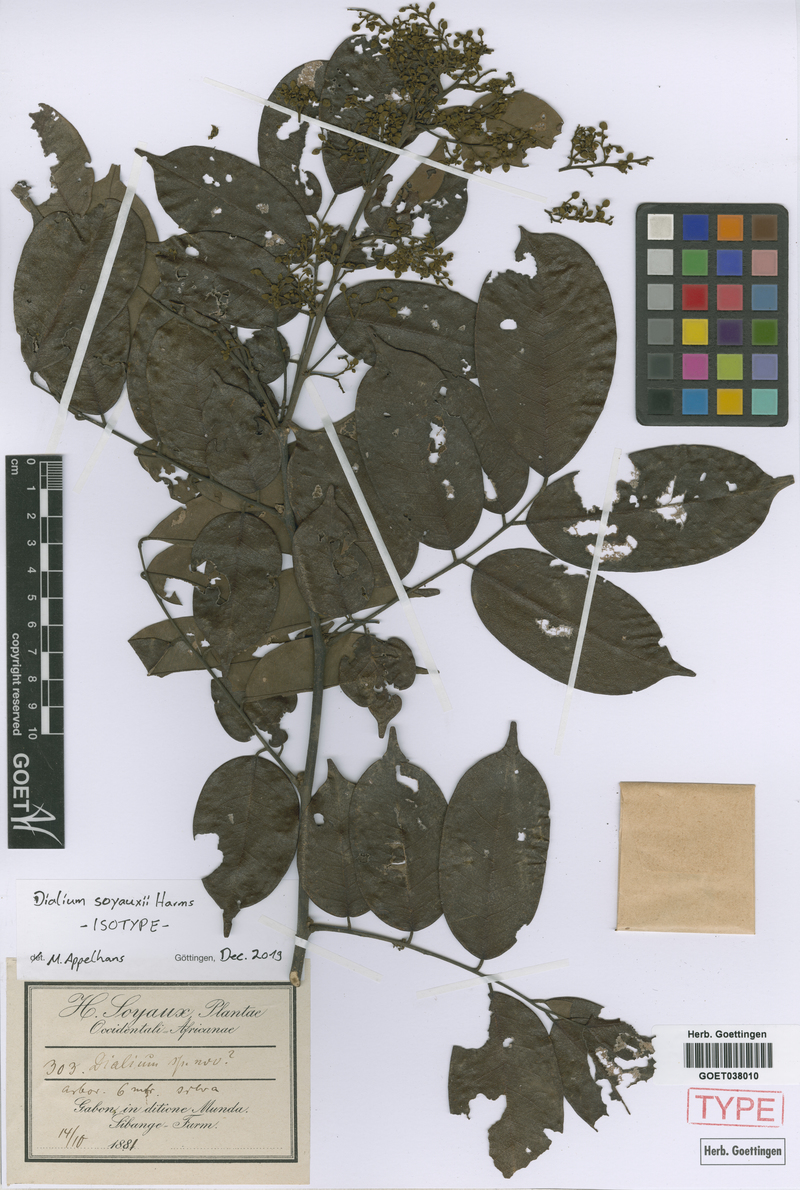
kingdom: Plantae
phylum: Tracheophyta
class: Magnoliopsida
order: Fabales
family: Fabaceae
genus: Dialium
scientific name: Dialium zenkeri
